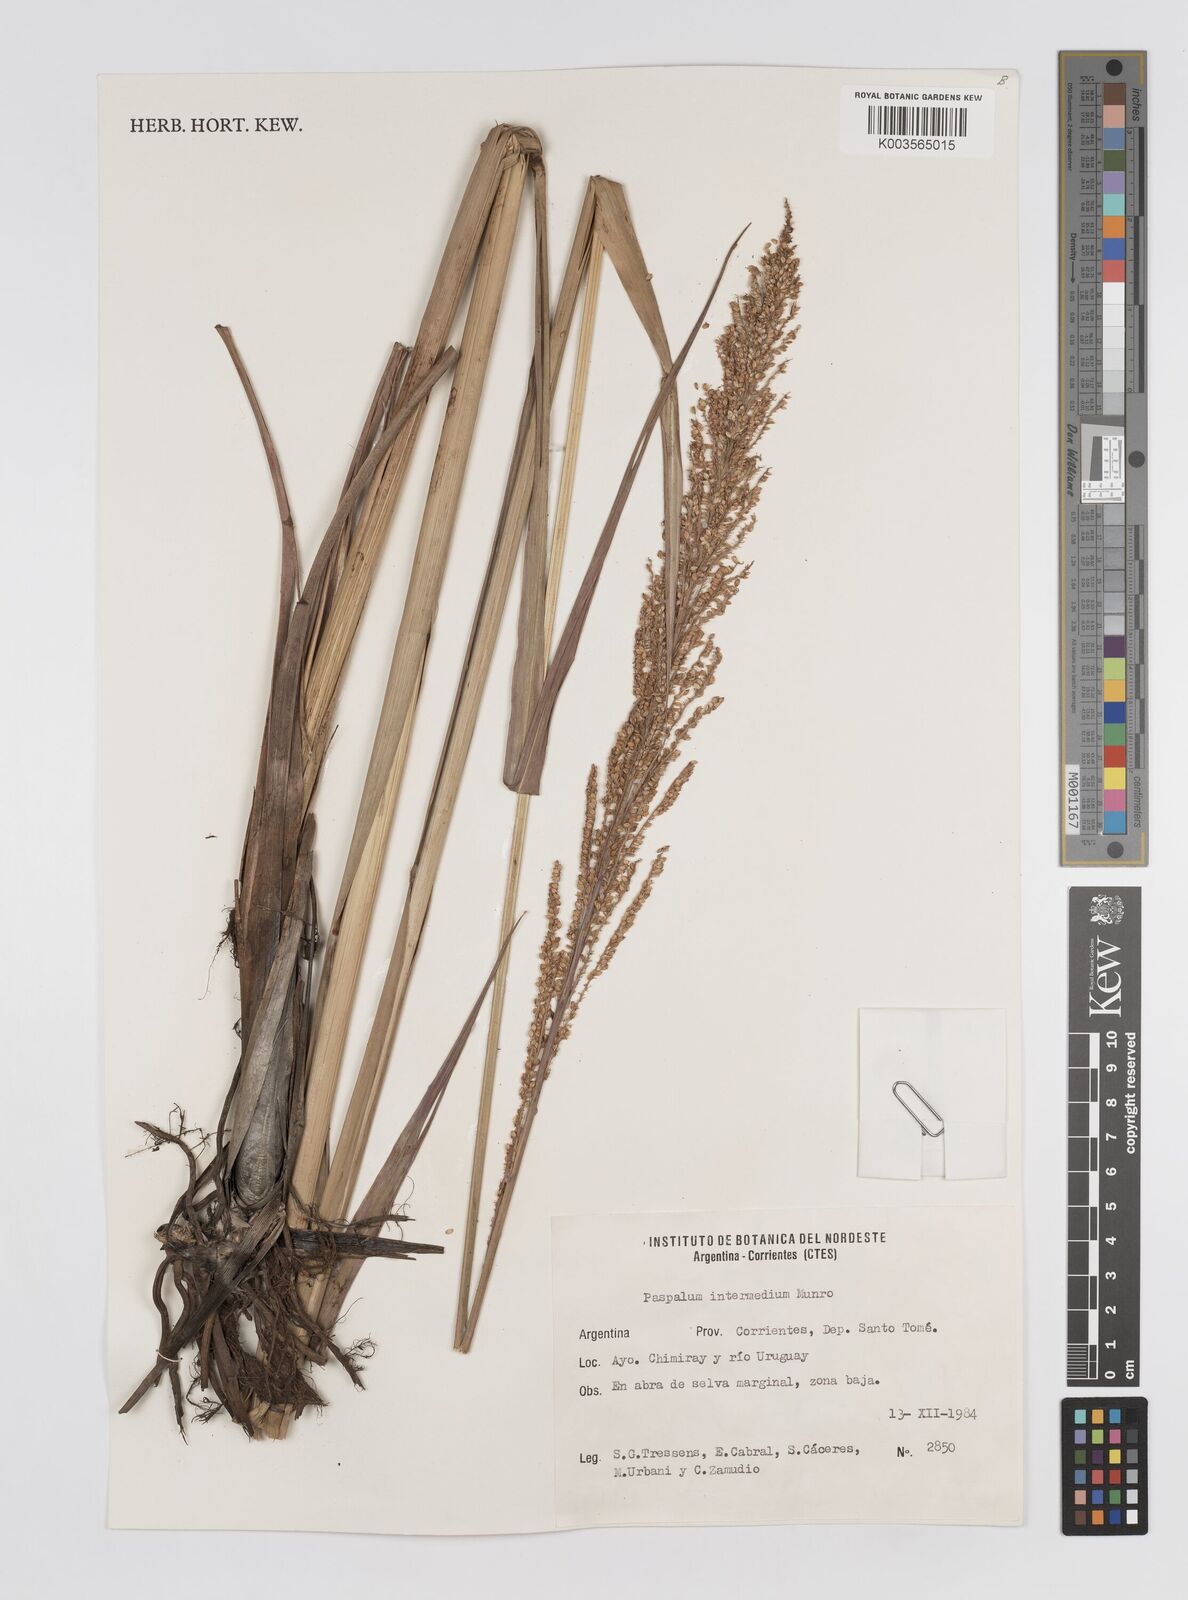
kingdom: Plantae
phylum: Tracheophyta
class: Liliopsida
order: Poales
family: Poaceae
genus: Paspalum
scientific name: Paspalum intermedium
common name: Intermediate paspalum
